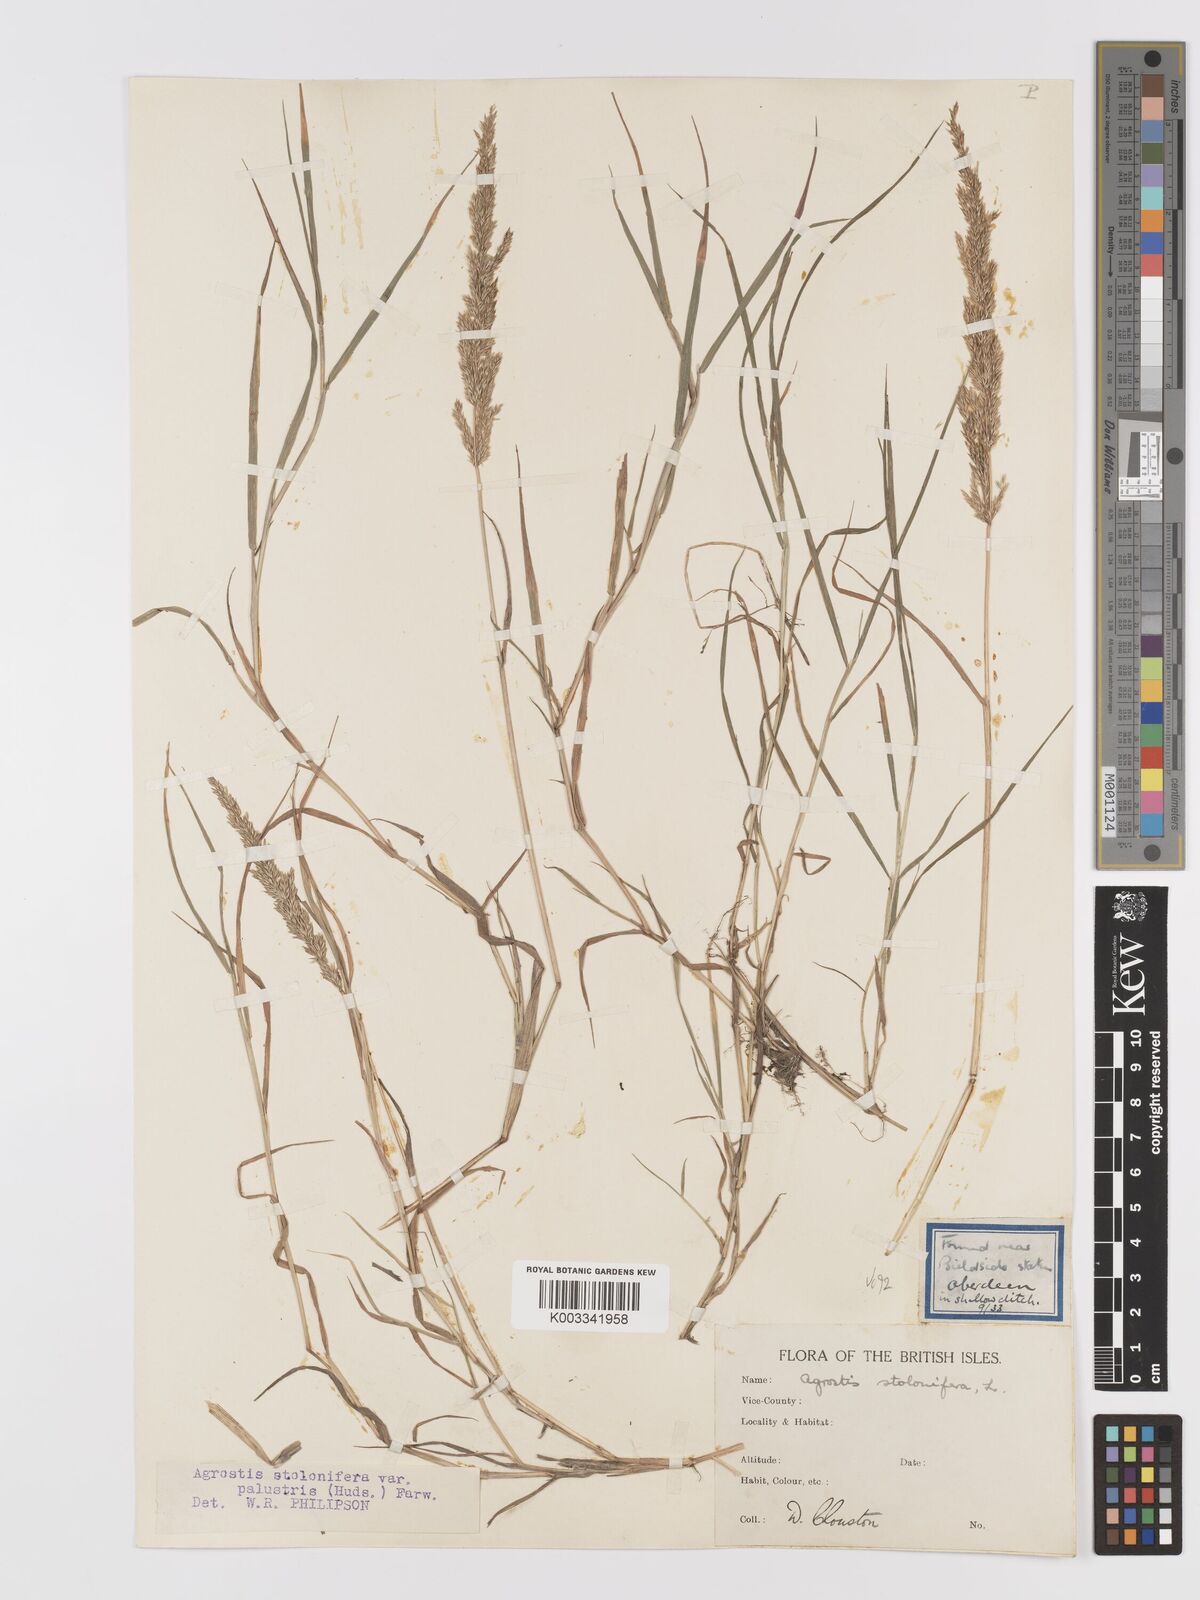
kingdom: Plantae
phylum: Tracheophyta
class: Liliopsida
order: Poales
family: Poaceae
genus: Agrostis
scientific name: Agrostis stolonifera
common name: Creeping bentgrass
